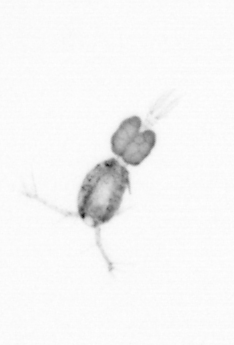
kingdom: Animalia
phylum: Arthropoda
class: Copepoda
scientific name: Copepoda
